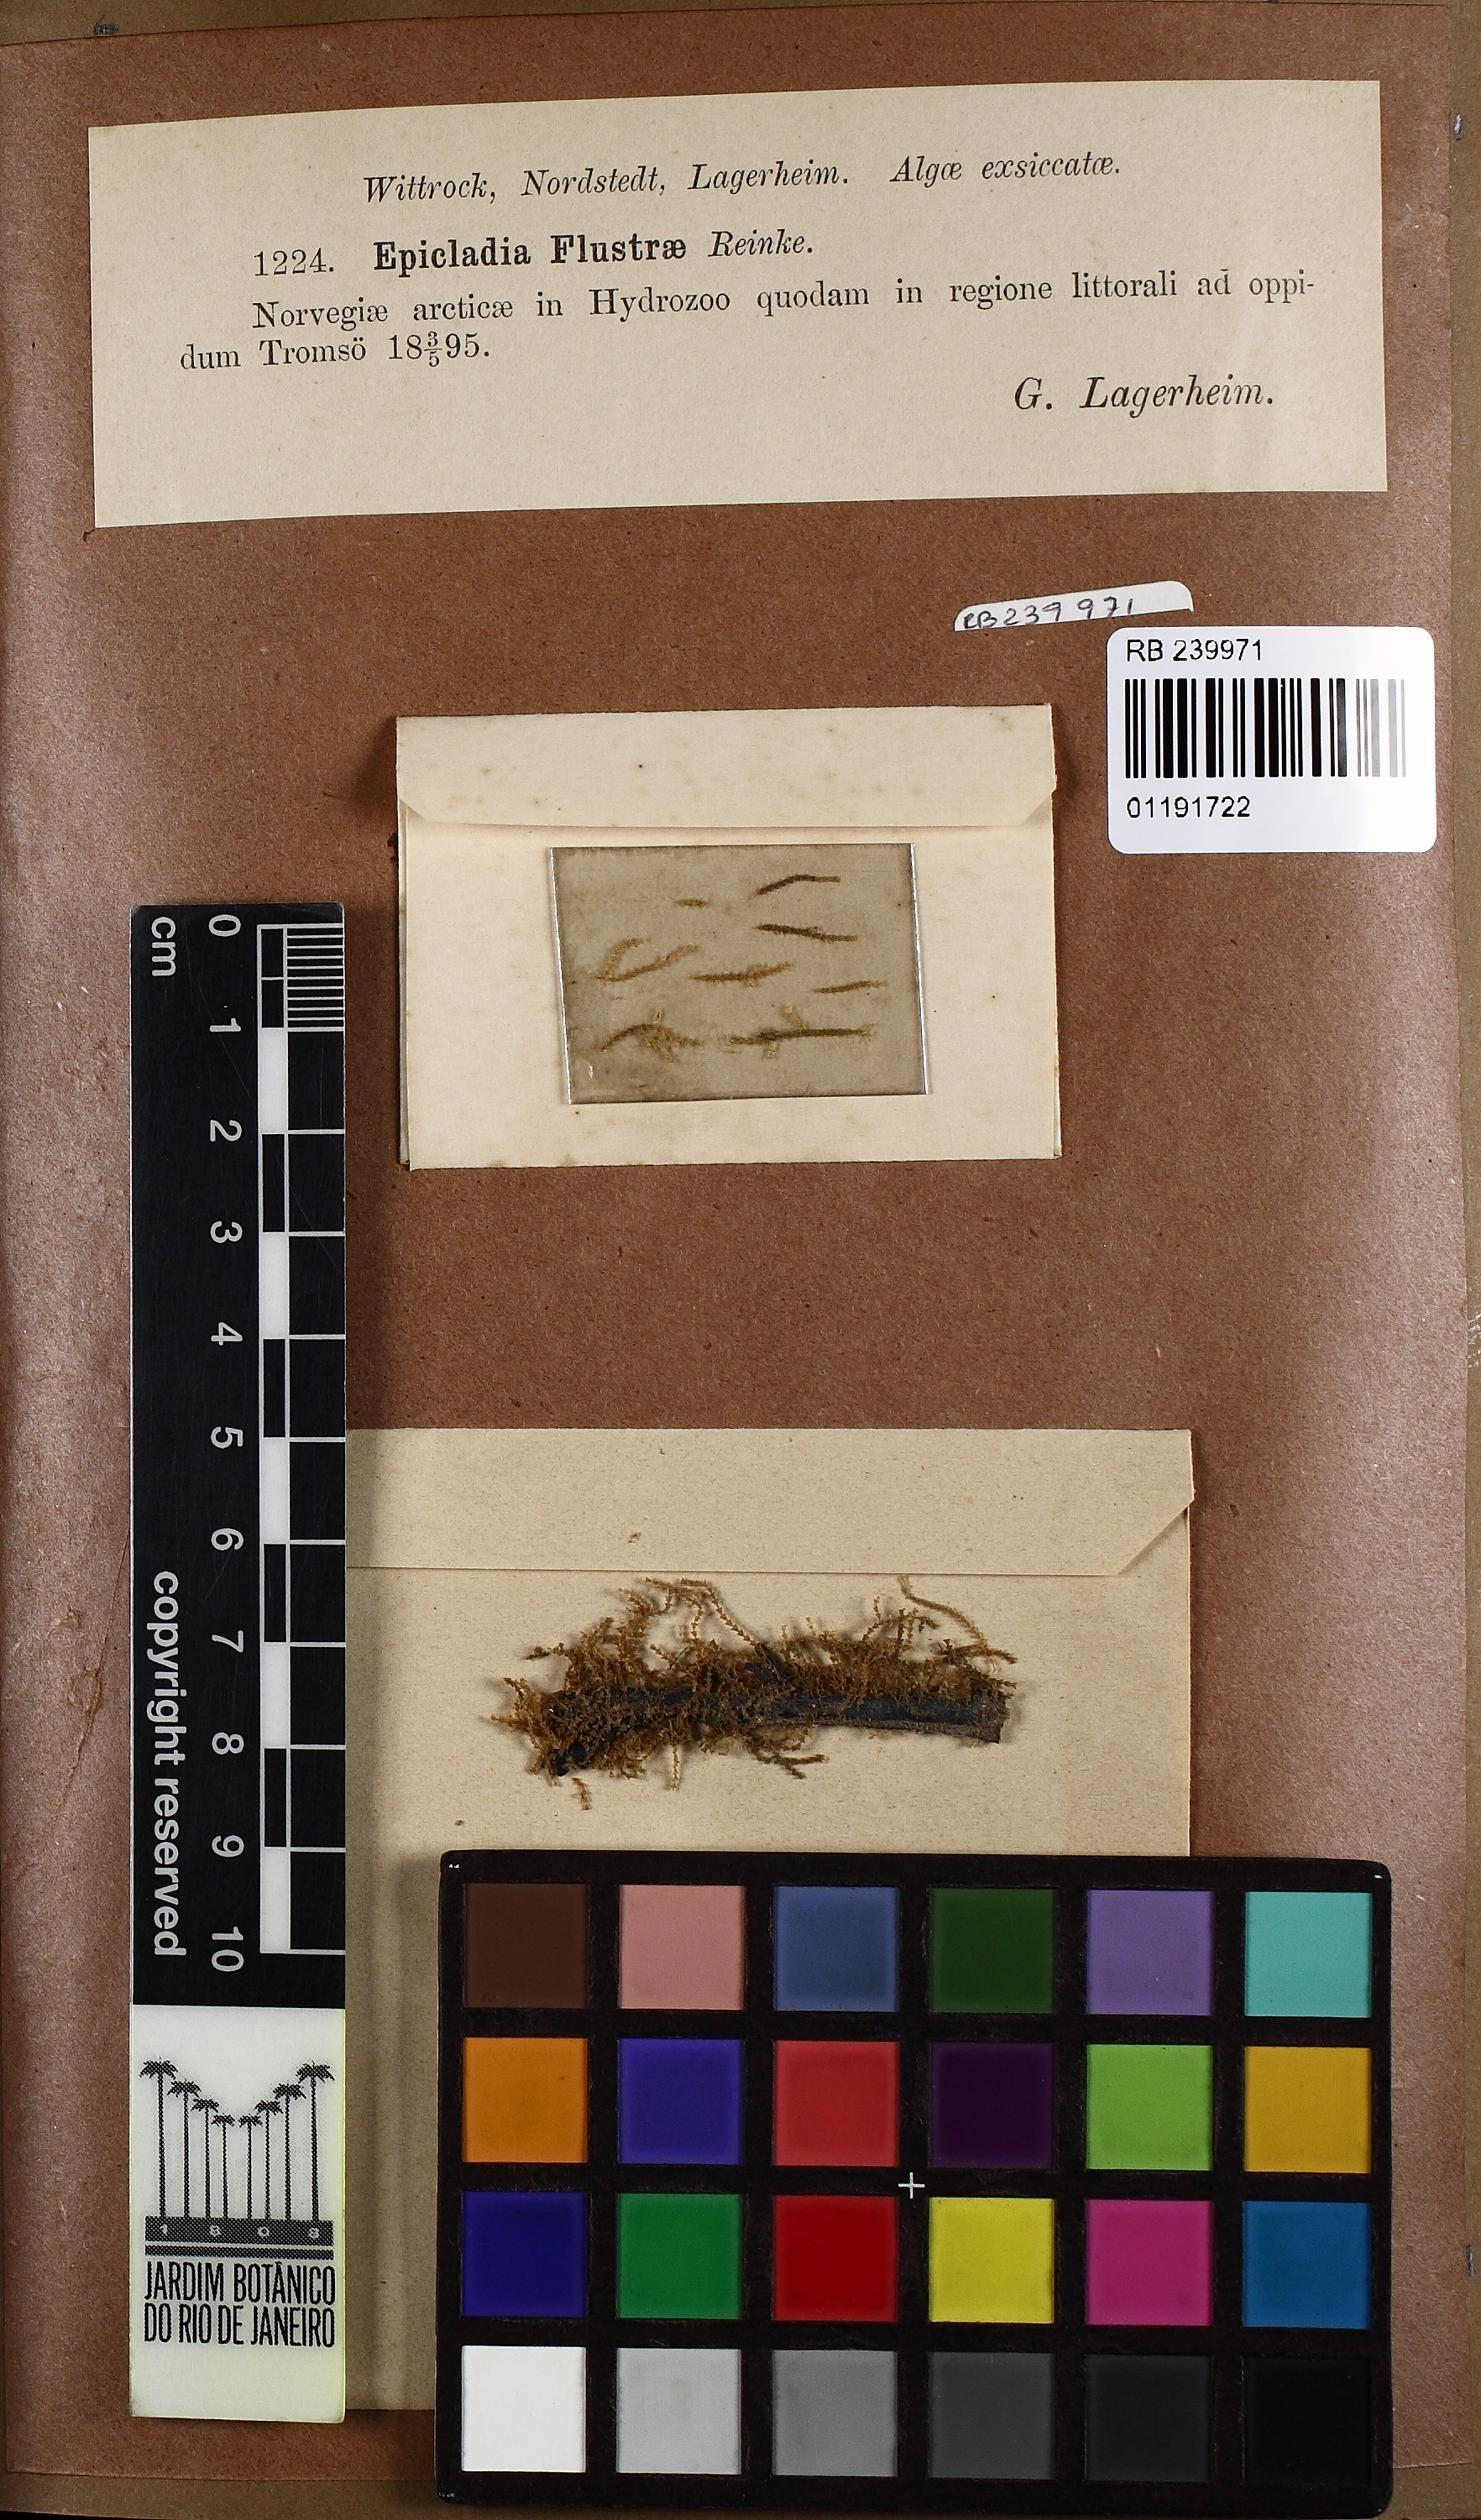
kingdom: Plantae
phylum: Chlorophyta
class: Ulvophyceae
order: Ulvales
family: Ulvellaceae
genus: Epicladia
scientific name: Epicladia flustrae
